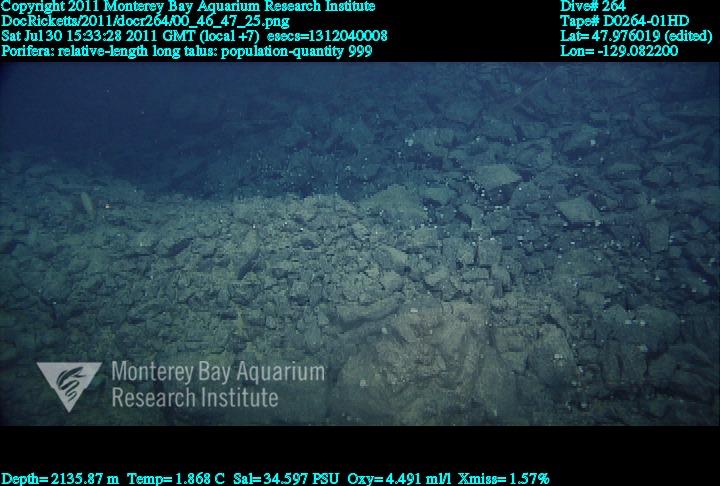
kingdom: Animalia
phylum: Porifera
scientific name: Porifera
